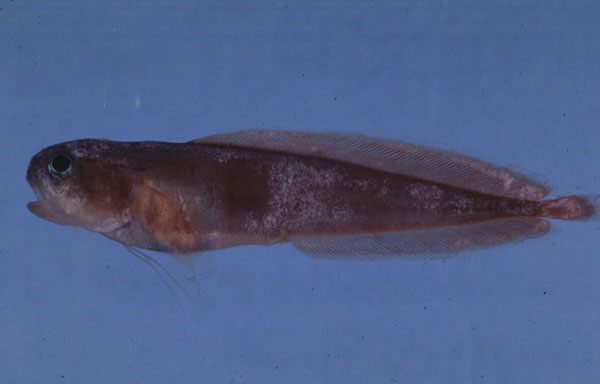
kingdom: Animalia
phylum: Chordata
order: Ophidiiformes
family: Bythitidae
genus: Brosmophyciops
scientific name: Brosmophyciops pautzkei
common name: Slimy cuskeel
